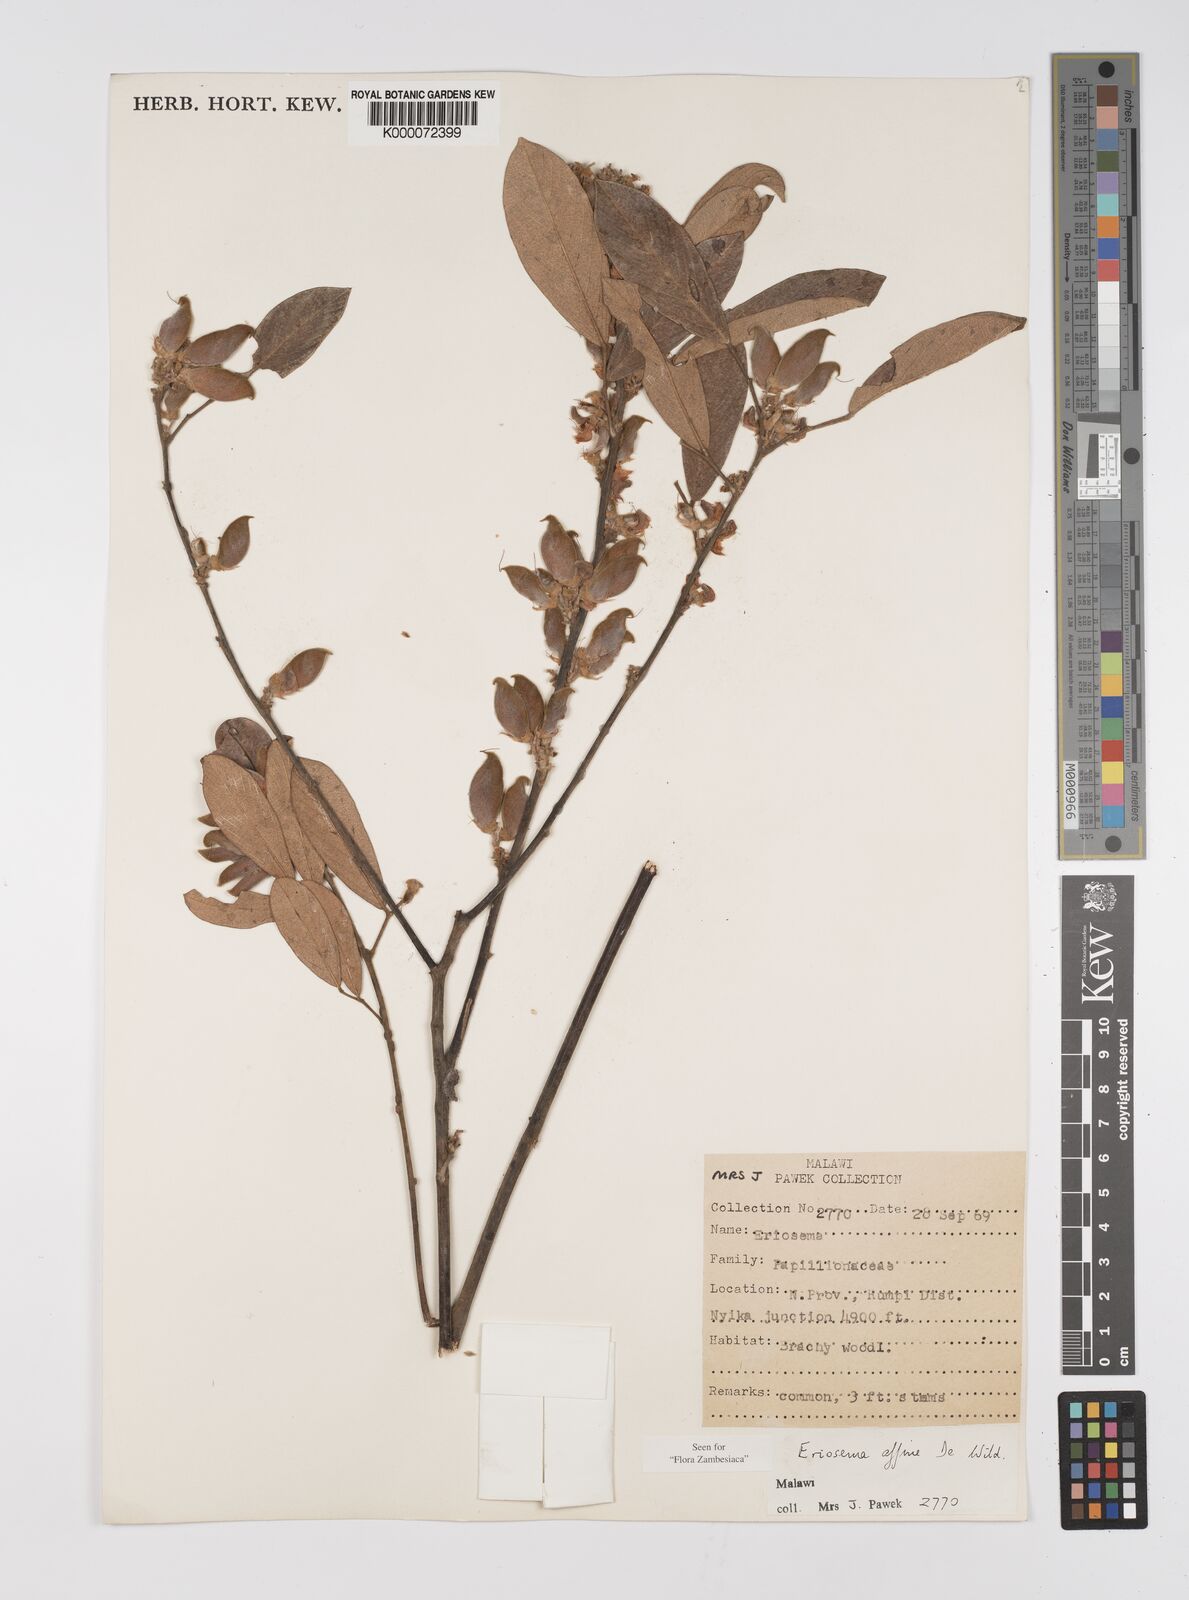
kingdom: Plantae
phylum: Tracheophyta
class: Magnoliopsida
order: Fabales
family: Fabaceae
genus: Eriosema
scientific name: Eriosema affine
